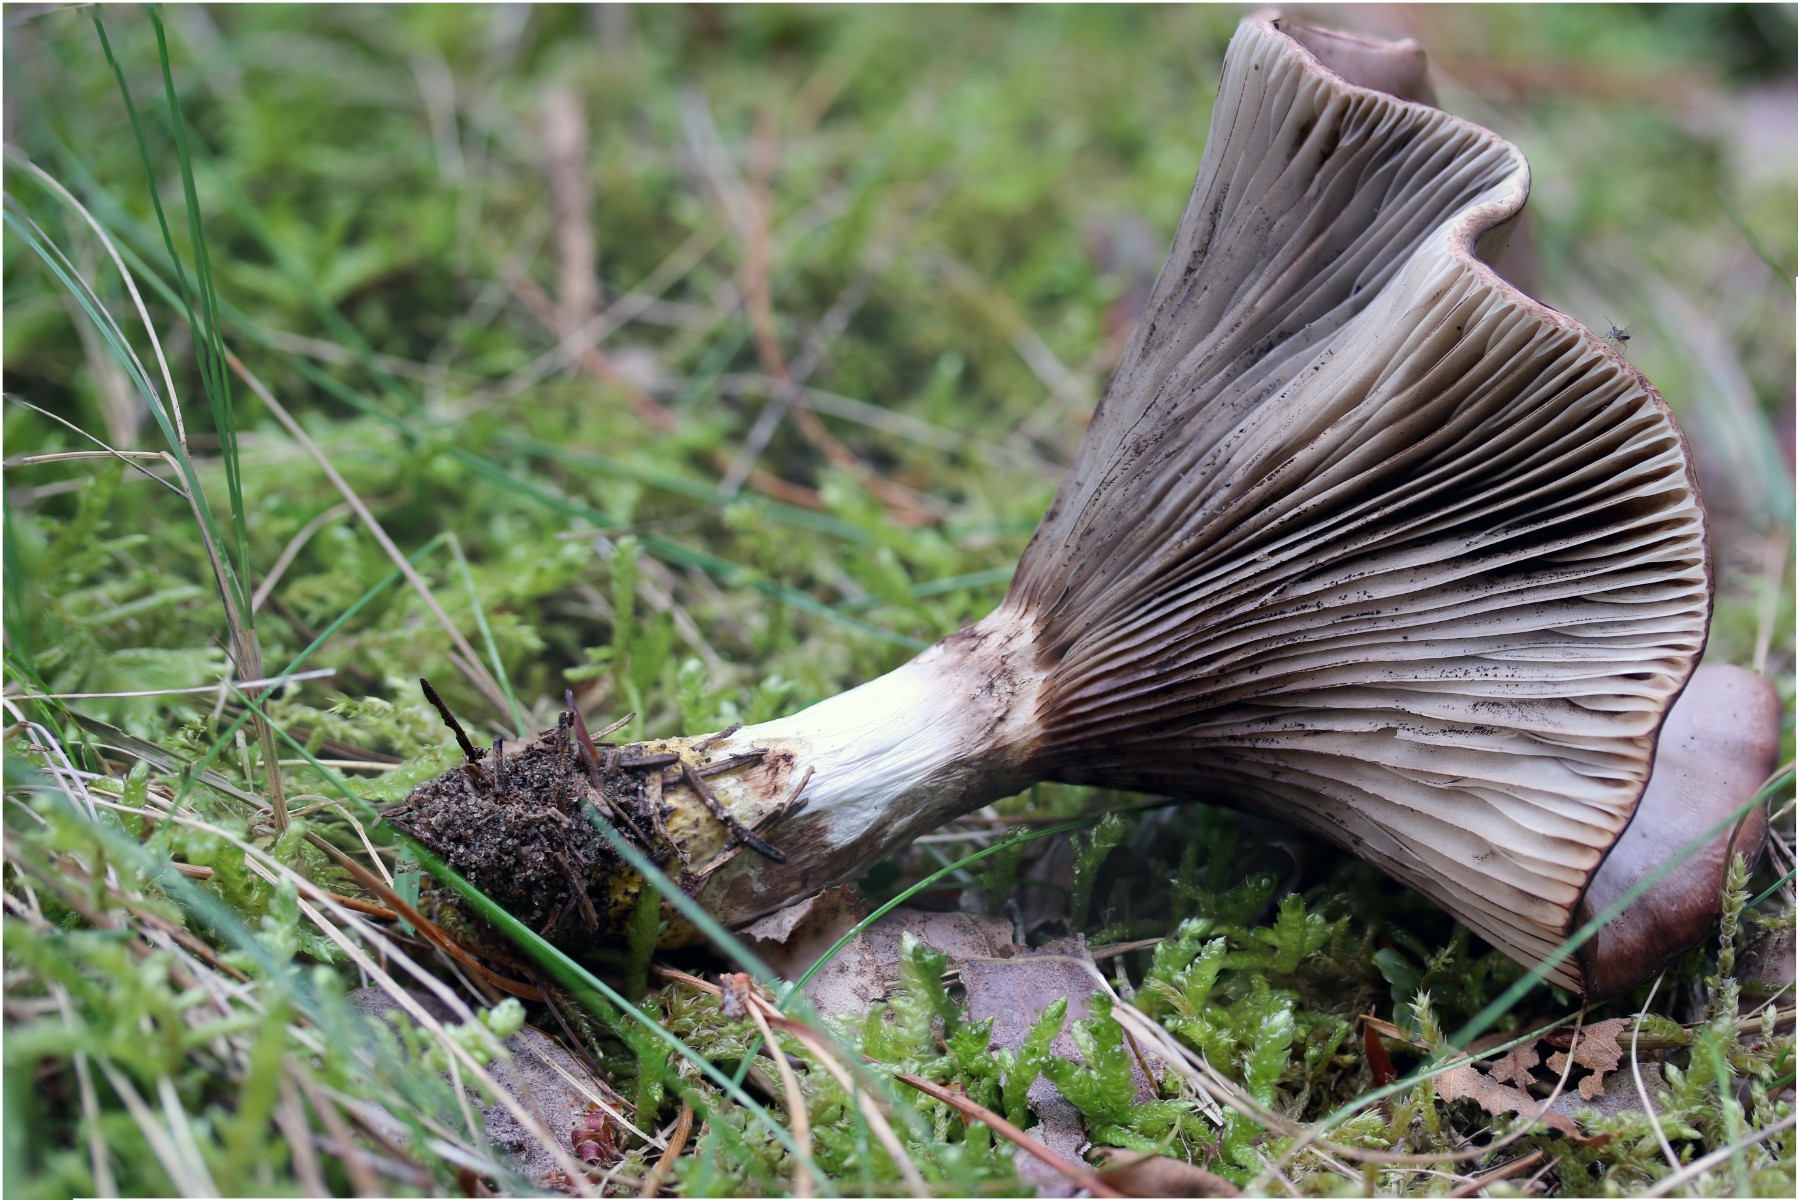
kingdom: Fungi
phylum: Basidiomycota
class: Agaricomycetes
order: Boletales
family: Gomphidiaceae
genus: Gomphidius
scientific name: Gomphidius glutinosus
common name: grå slimslør
